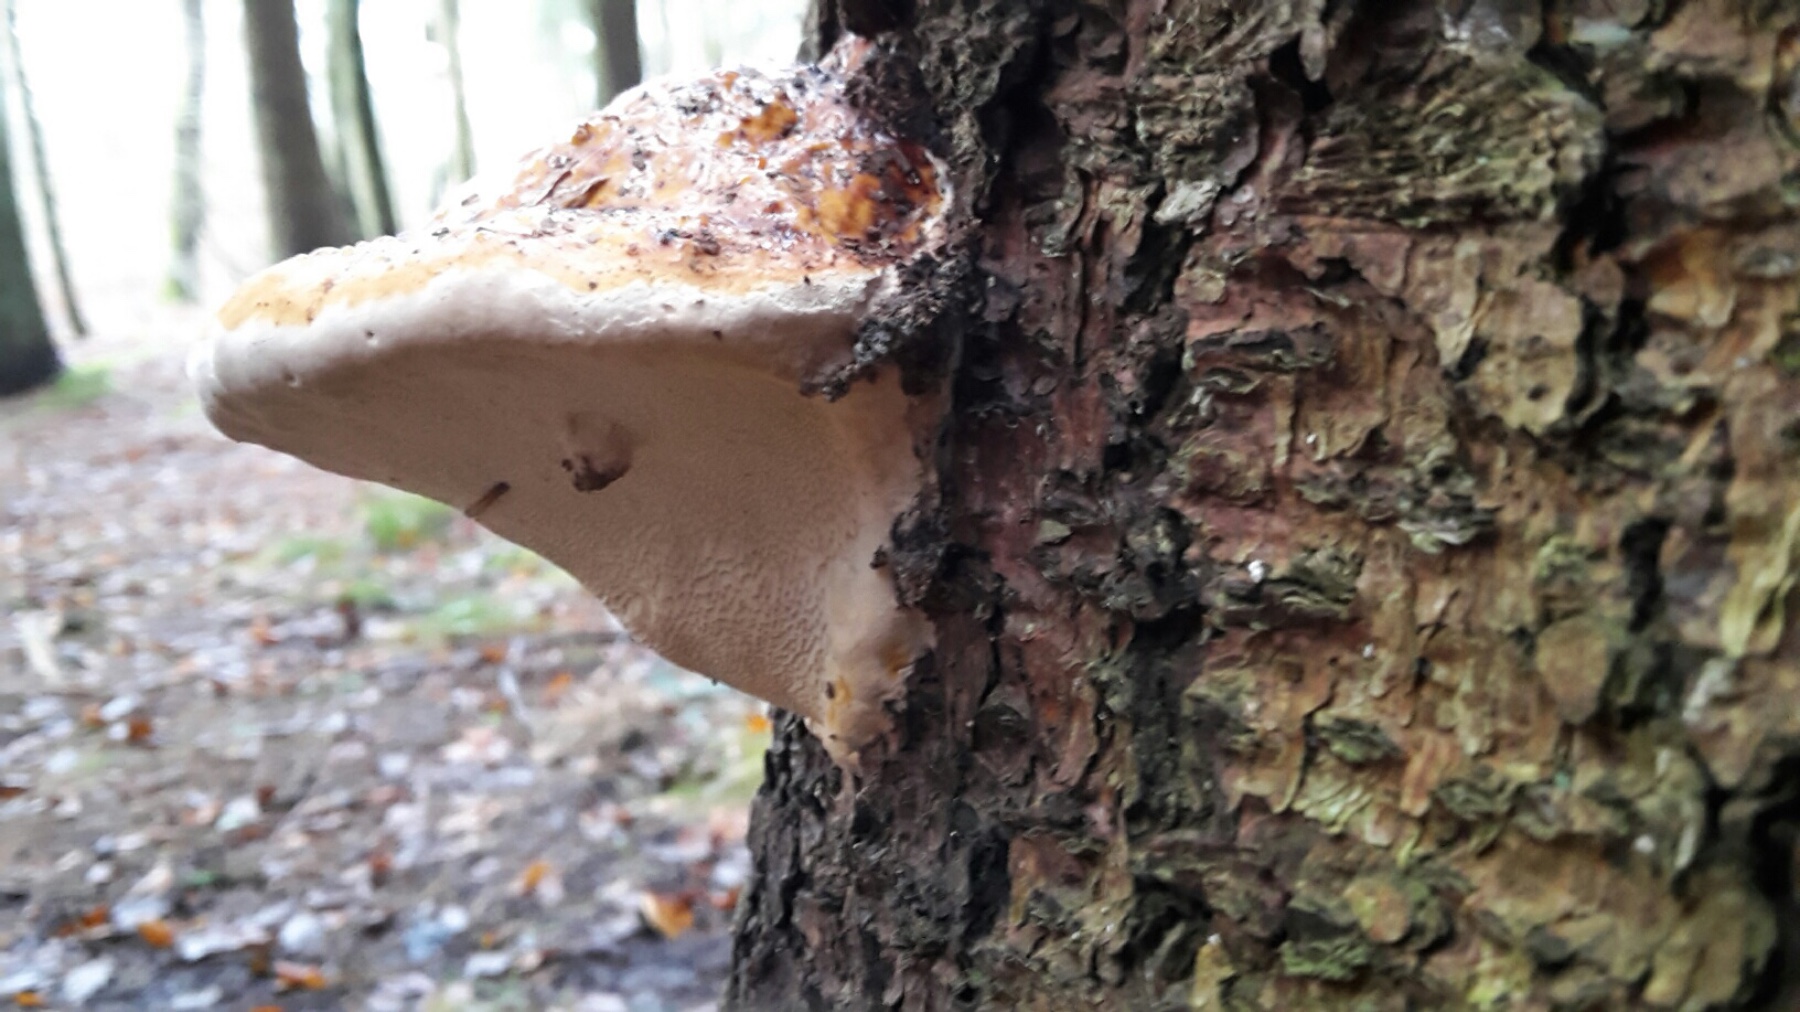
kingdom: Fungi
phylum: Basidiomycota
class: Agaricomycetes
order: Polyporales
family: Fomitopsidaceae
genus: Fomitopsis
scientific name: Fomitopsis pinicola
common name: randbæltet hovporesvamp
